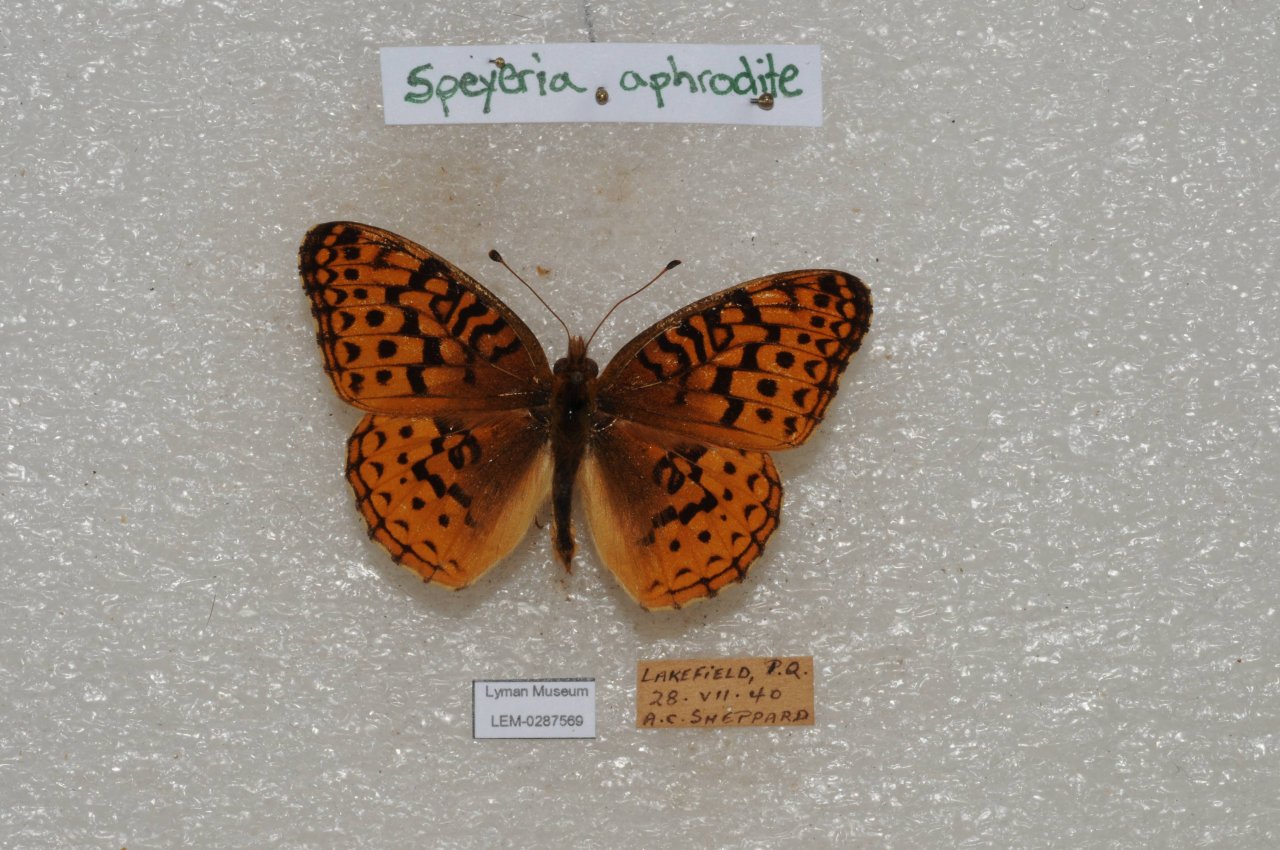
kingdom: Animalia
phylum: Arthropoda
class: Insecta
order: Lepidoptera
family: Nymphalidae
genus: Speyeria
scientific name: Speyeria aphrodite
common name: Aphrodite Fritillary
